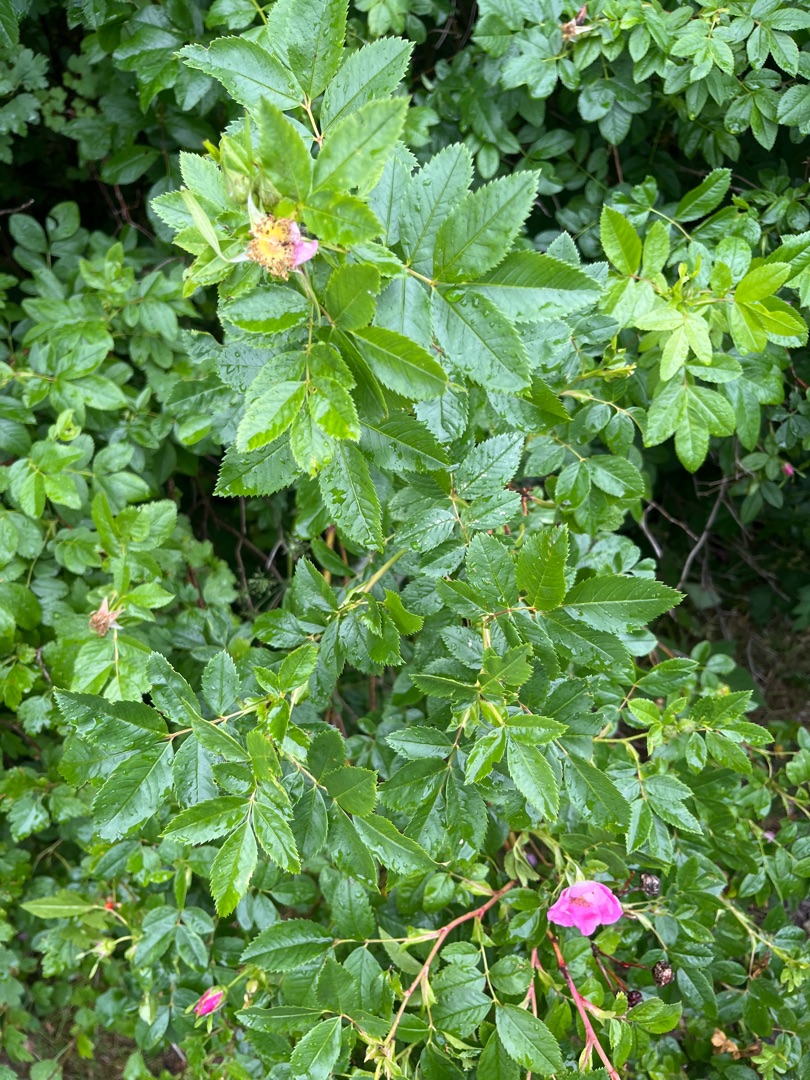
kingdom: Plantae
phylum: Tracheophyta
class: Magnoliopsida
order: Rosales
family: Rosaceae
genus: Rosa
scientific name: Rosa carolina
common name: Glansbladet rose
